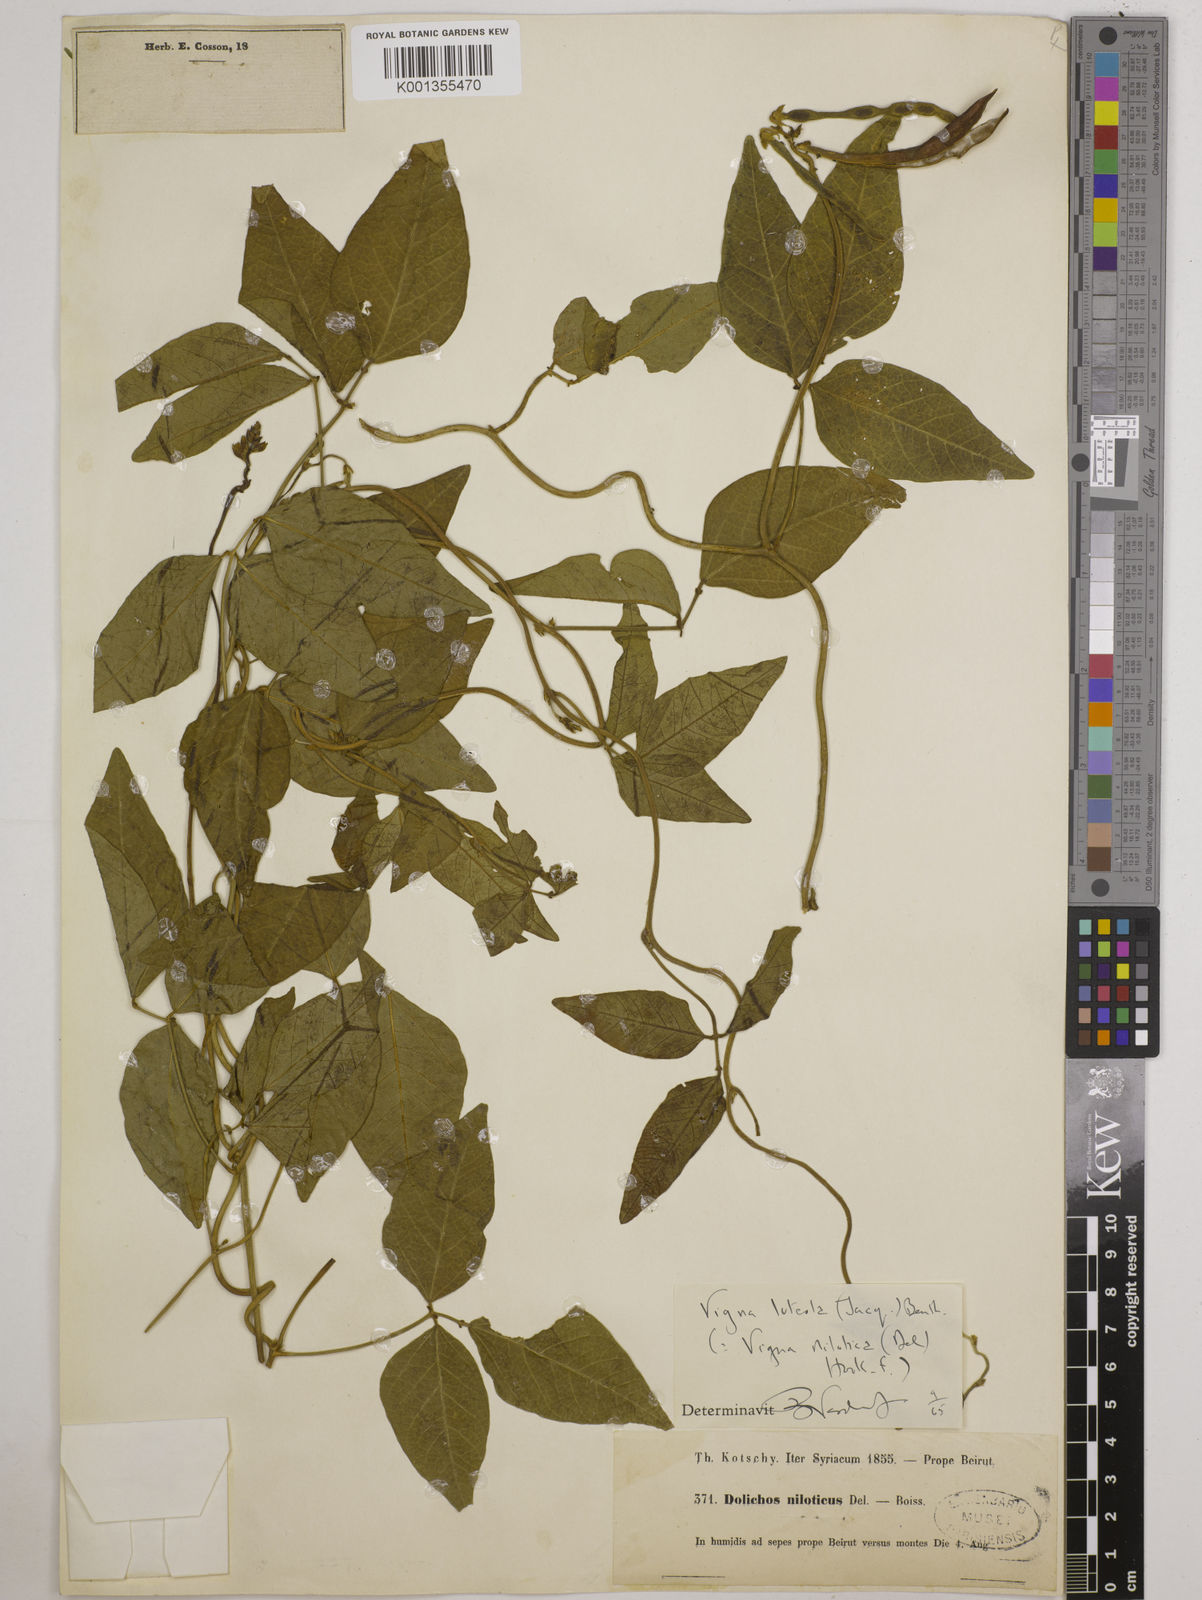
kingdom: Plantae
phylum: Tracheophyta
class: Magnoliopsida
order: Fabales
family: Fabaceae
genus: Vigna
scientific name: Vigna luteola
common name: Hairypod cowpea
